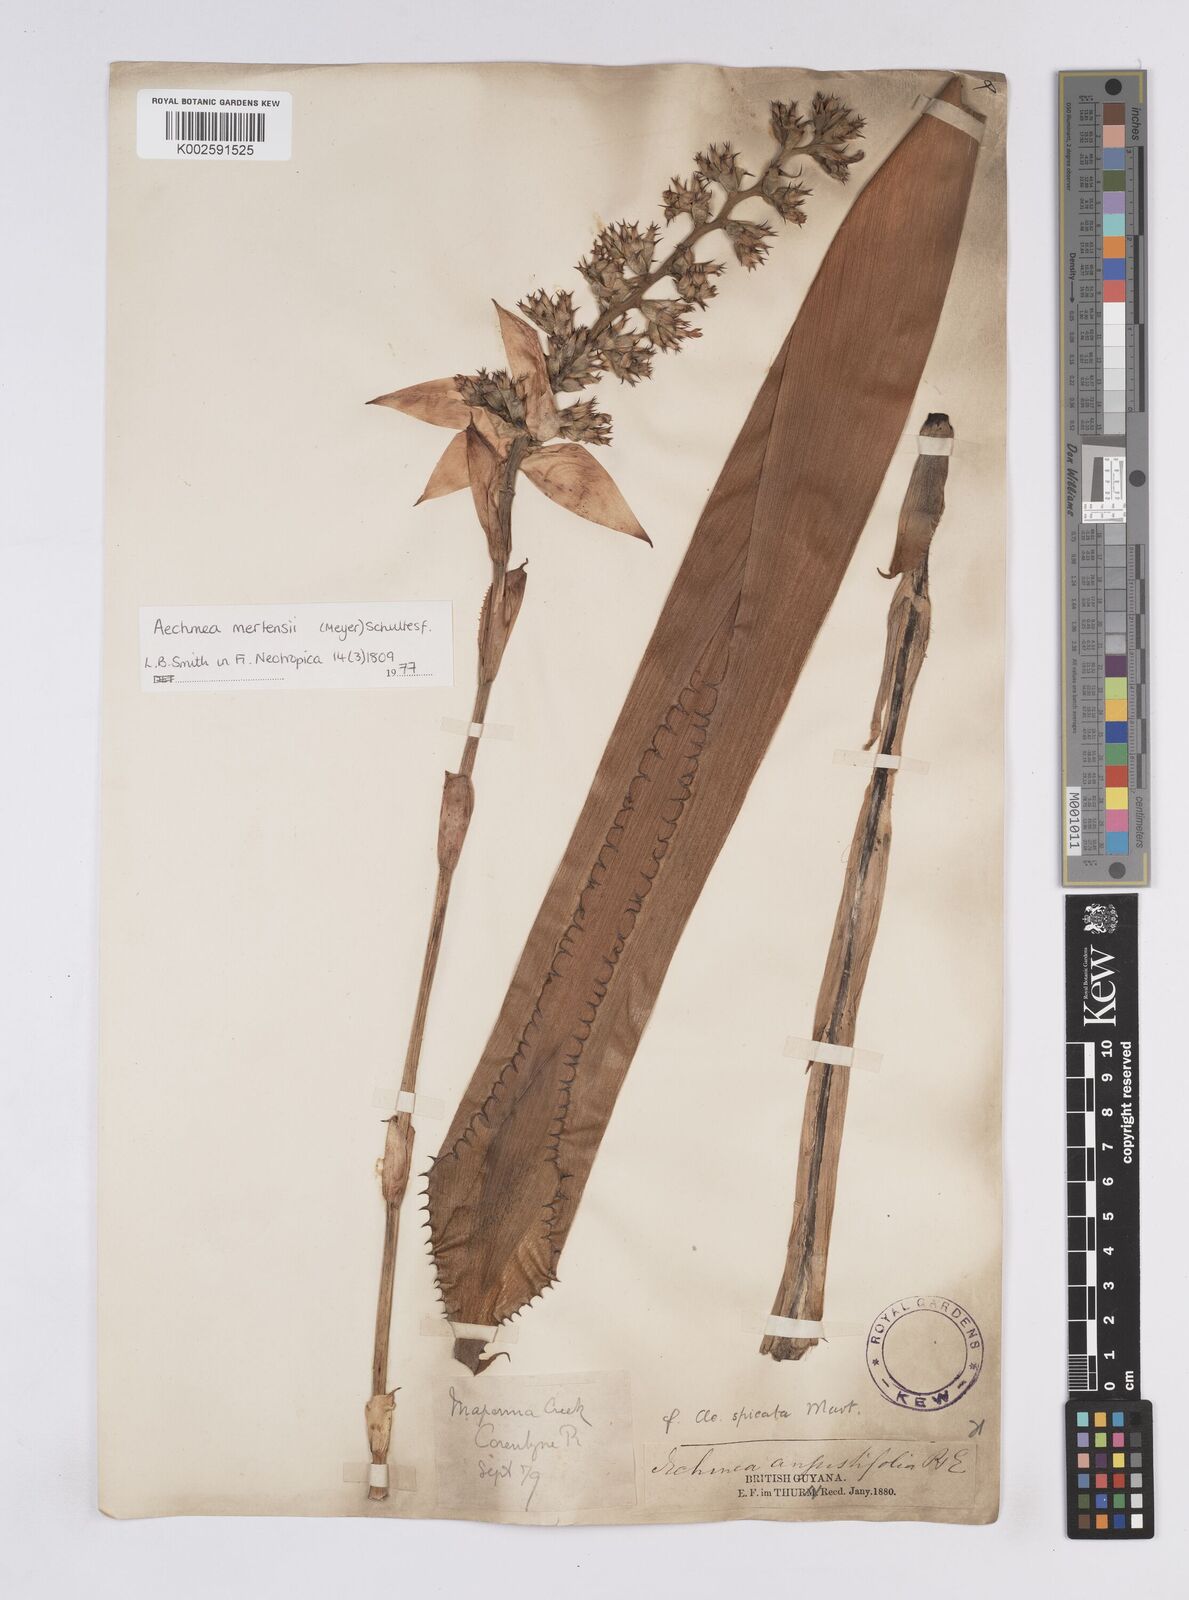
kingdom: Plantae
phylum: Tracheophyta
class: Liliopsida
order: Poales
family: Bromeliaceae
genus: Aechmea
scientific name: Aechmea mertensii
